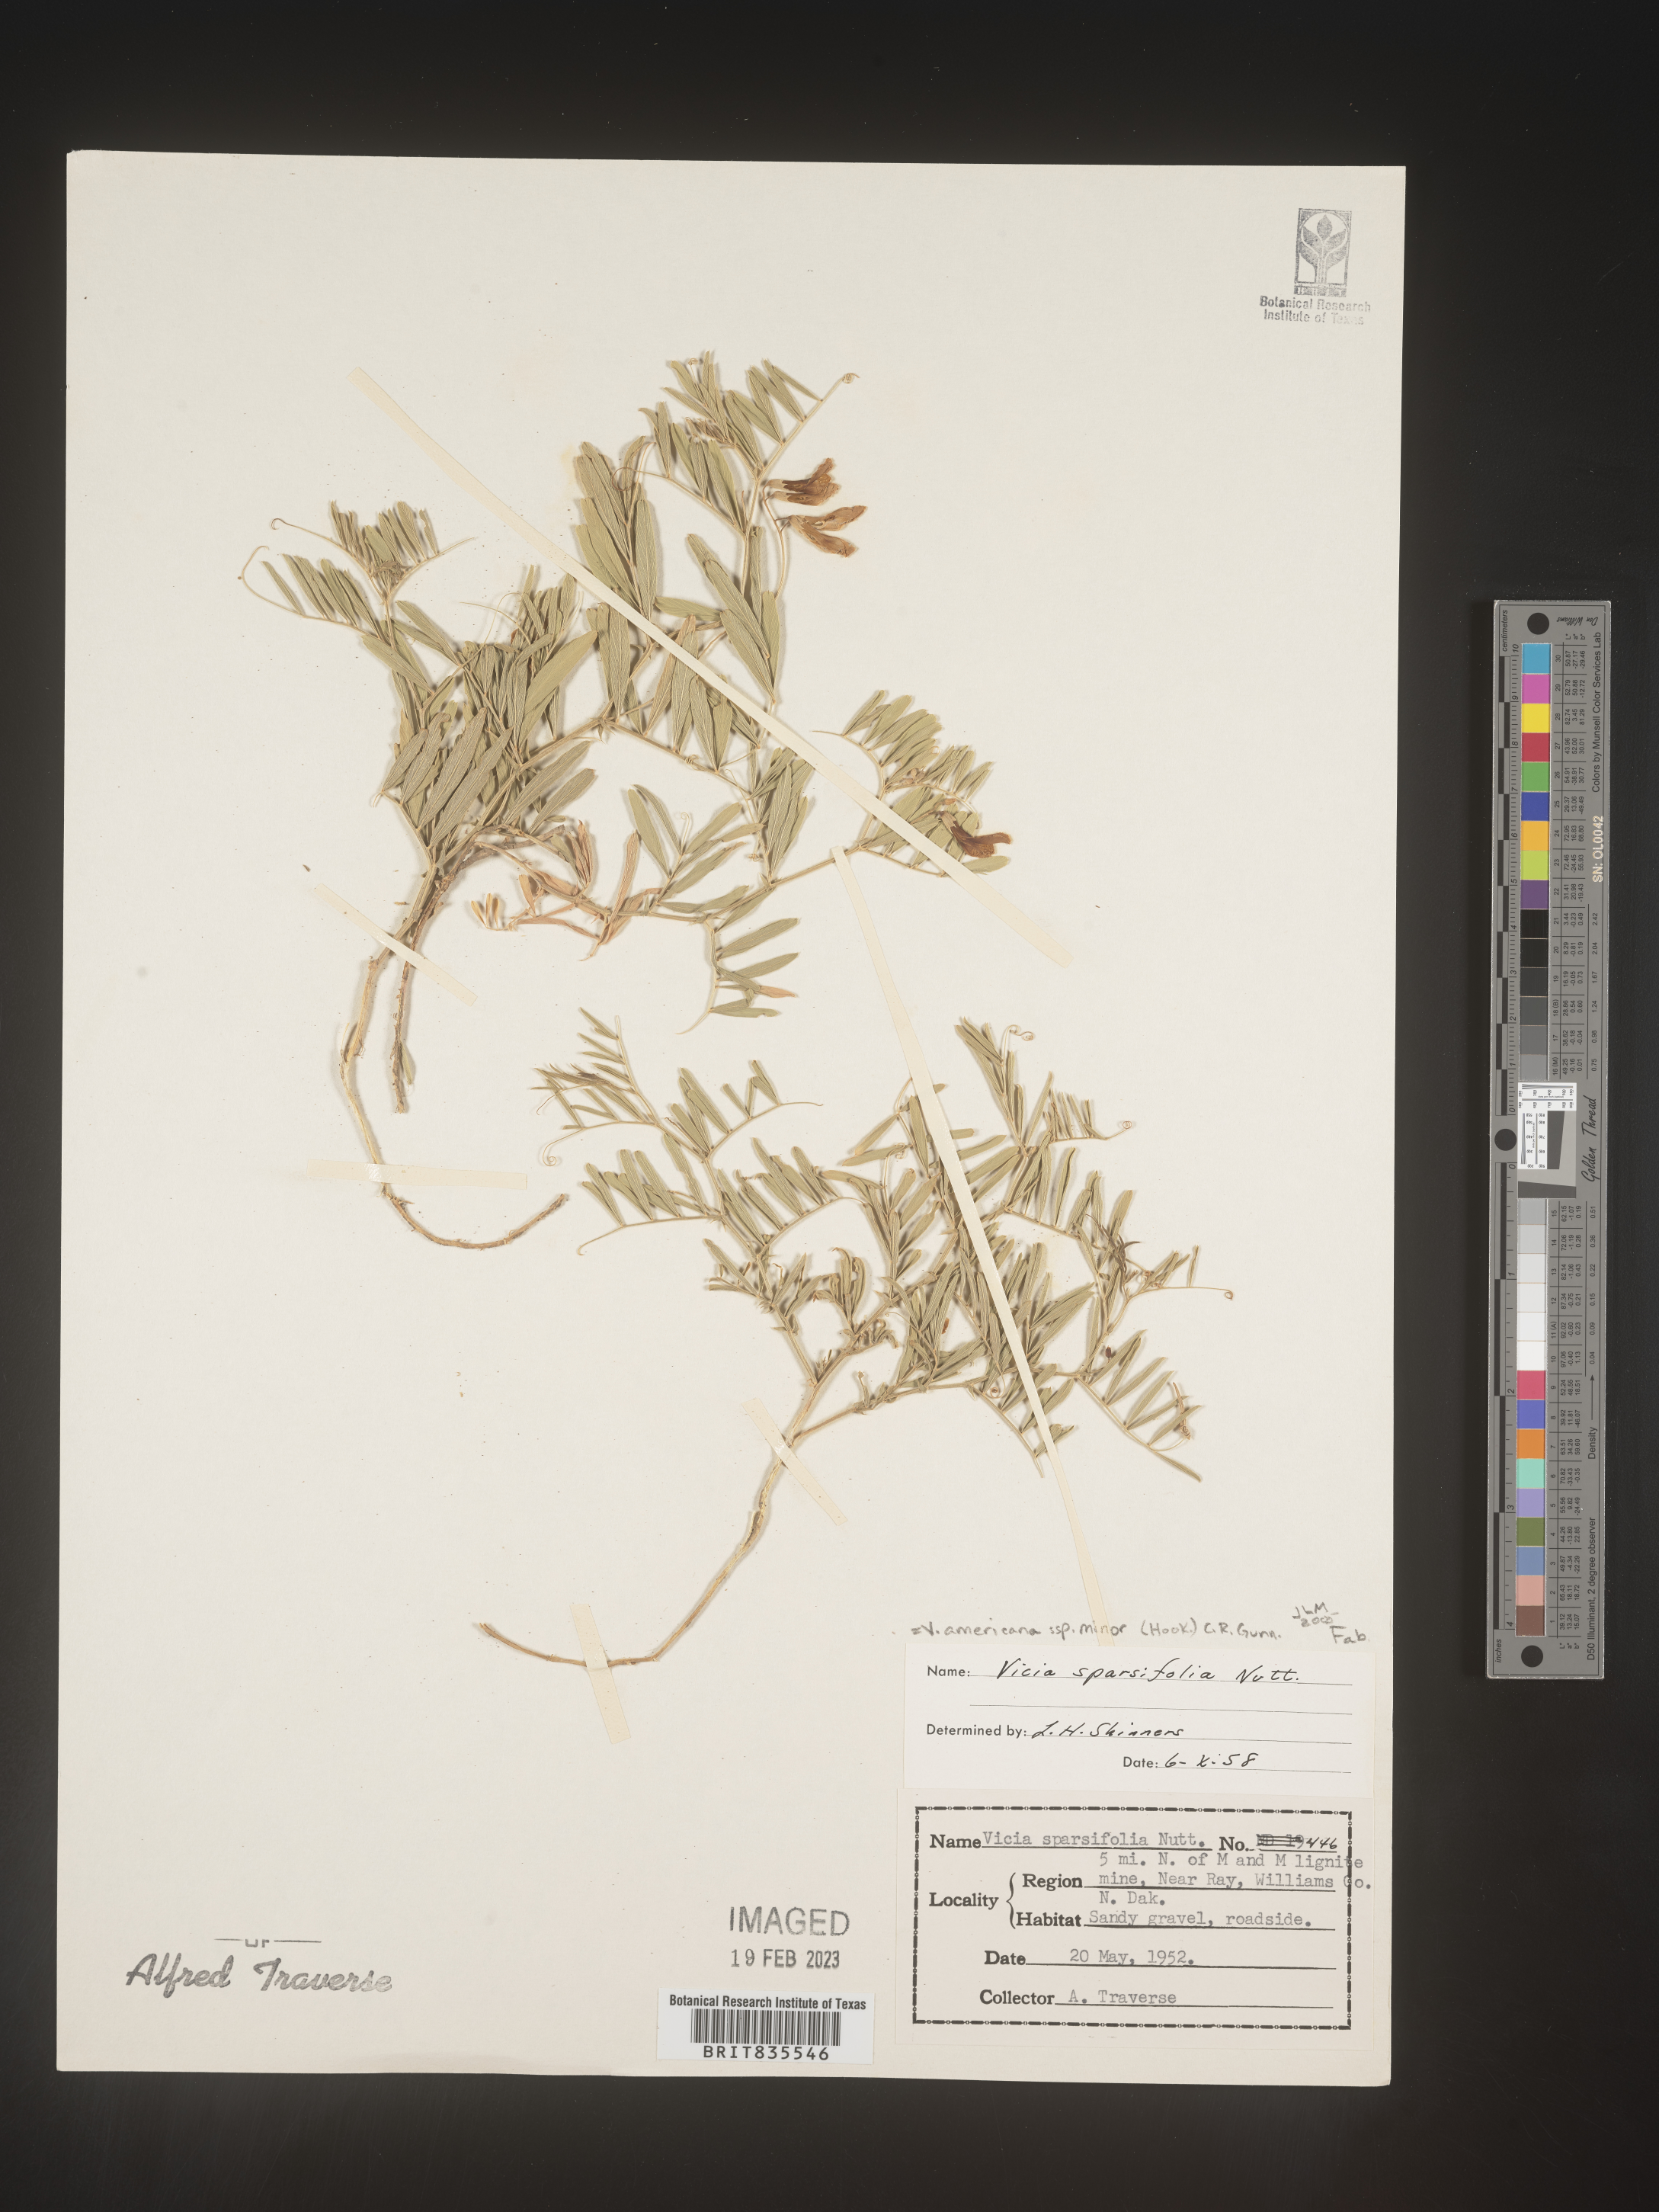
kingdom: Plantae
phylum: Tracheophyta
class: Magnoliopsida
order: Fabales
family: Fabaceae
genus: Vicia
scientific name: Vicia americana
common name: American vetch
